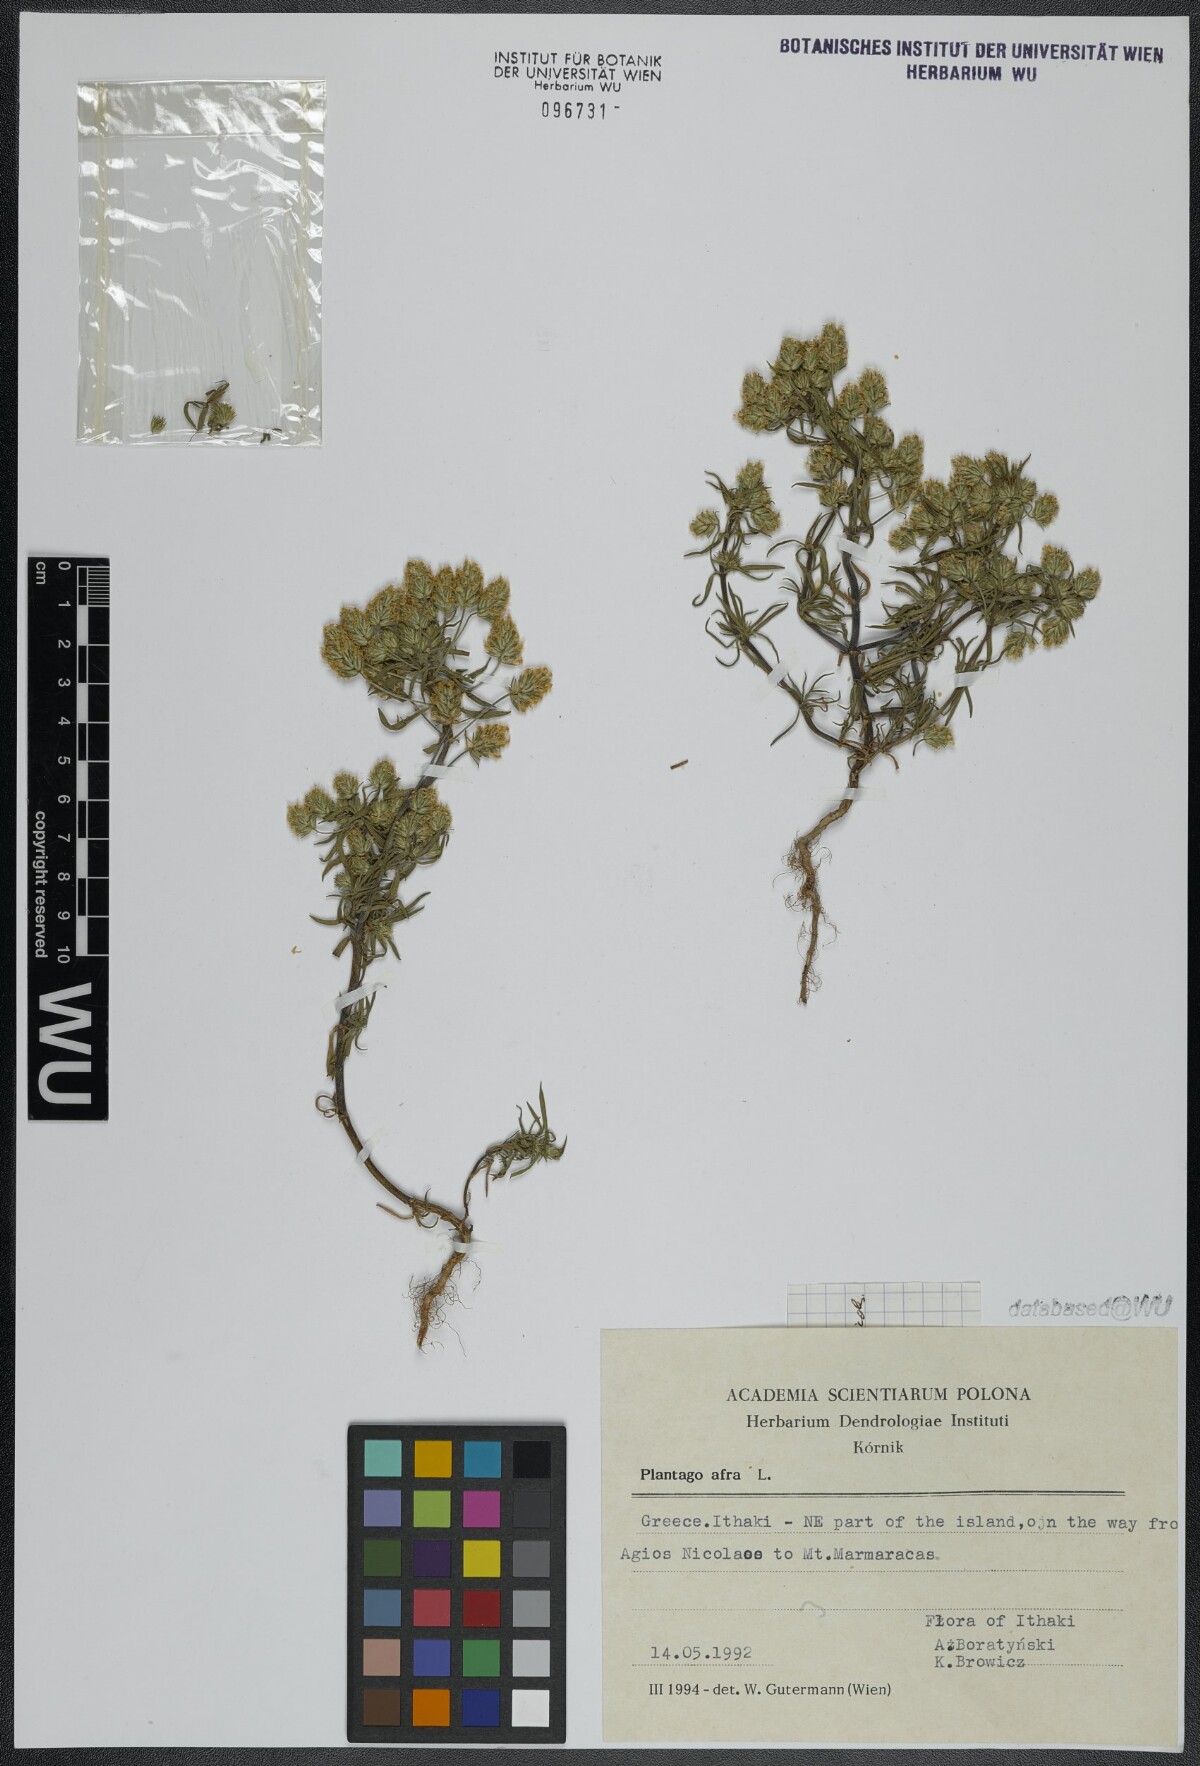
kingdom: Plantae
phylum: Tracheophyta
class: Magnoliopsida
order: Lamiales
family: Plantaginaceae
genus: Plantago
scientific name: Plantago afra
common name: Glandular plantain
